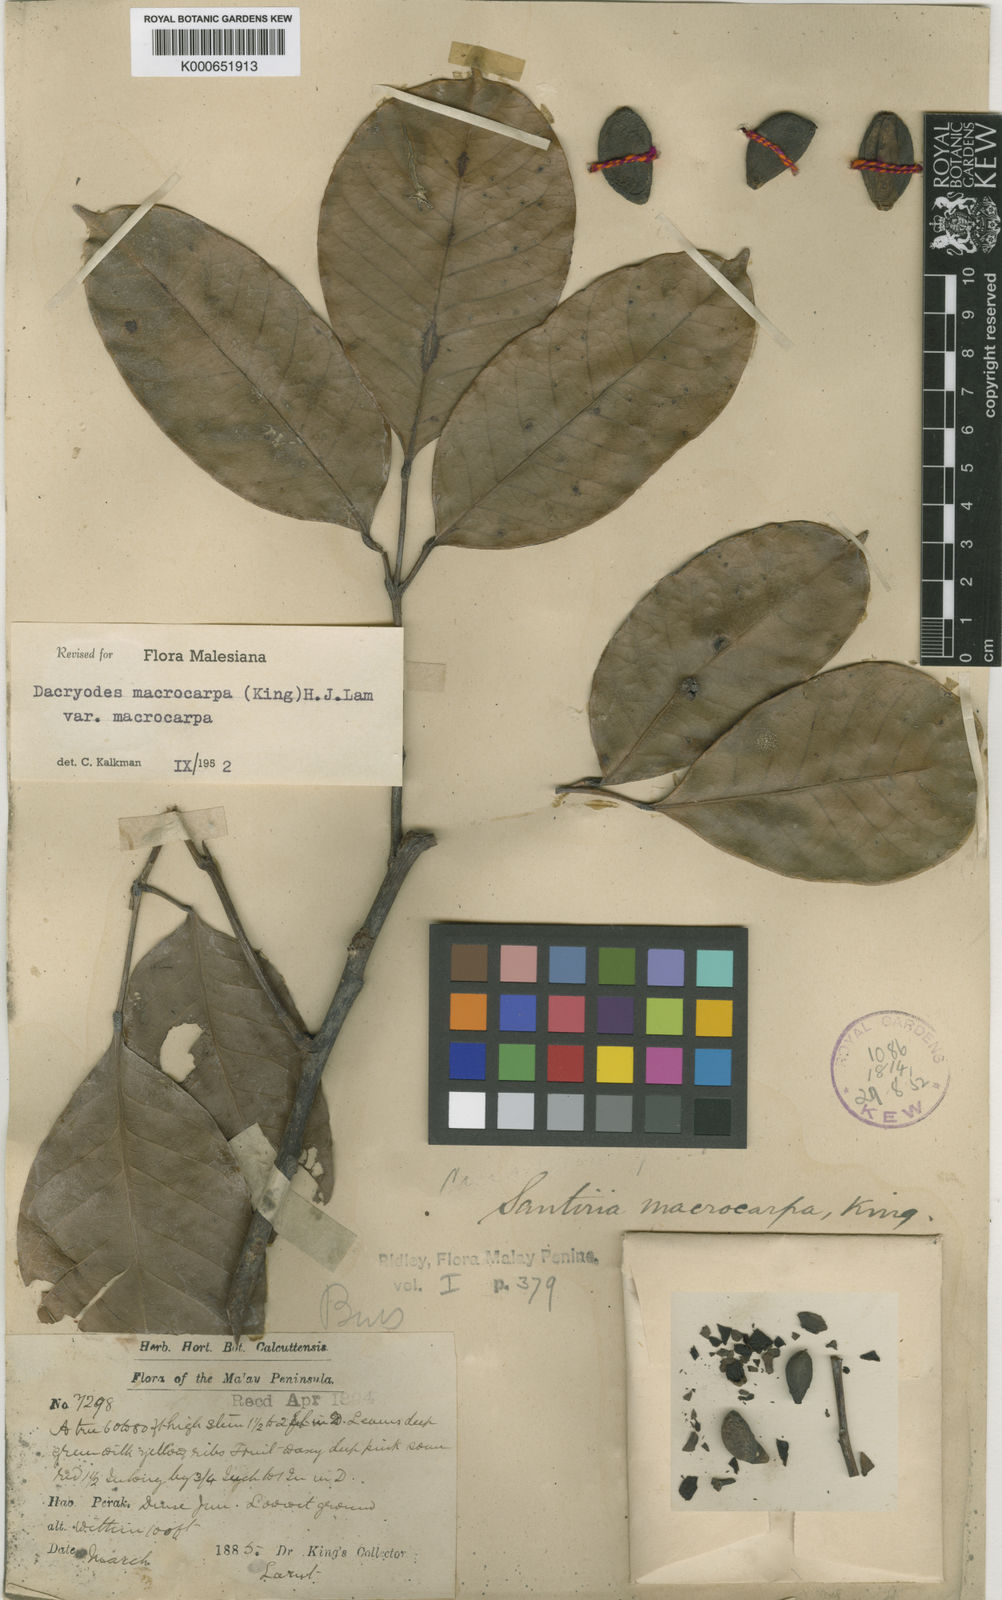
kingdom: Plantae
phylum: Tracheophyta
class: Magnoliopsida
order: Sapindales
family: Burseraceae
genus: Dacryodes
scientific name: Dacryodes macrocarpa
